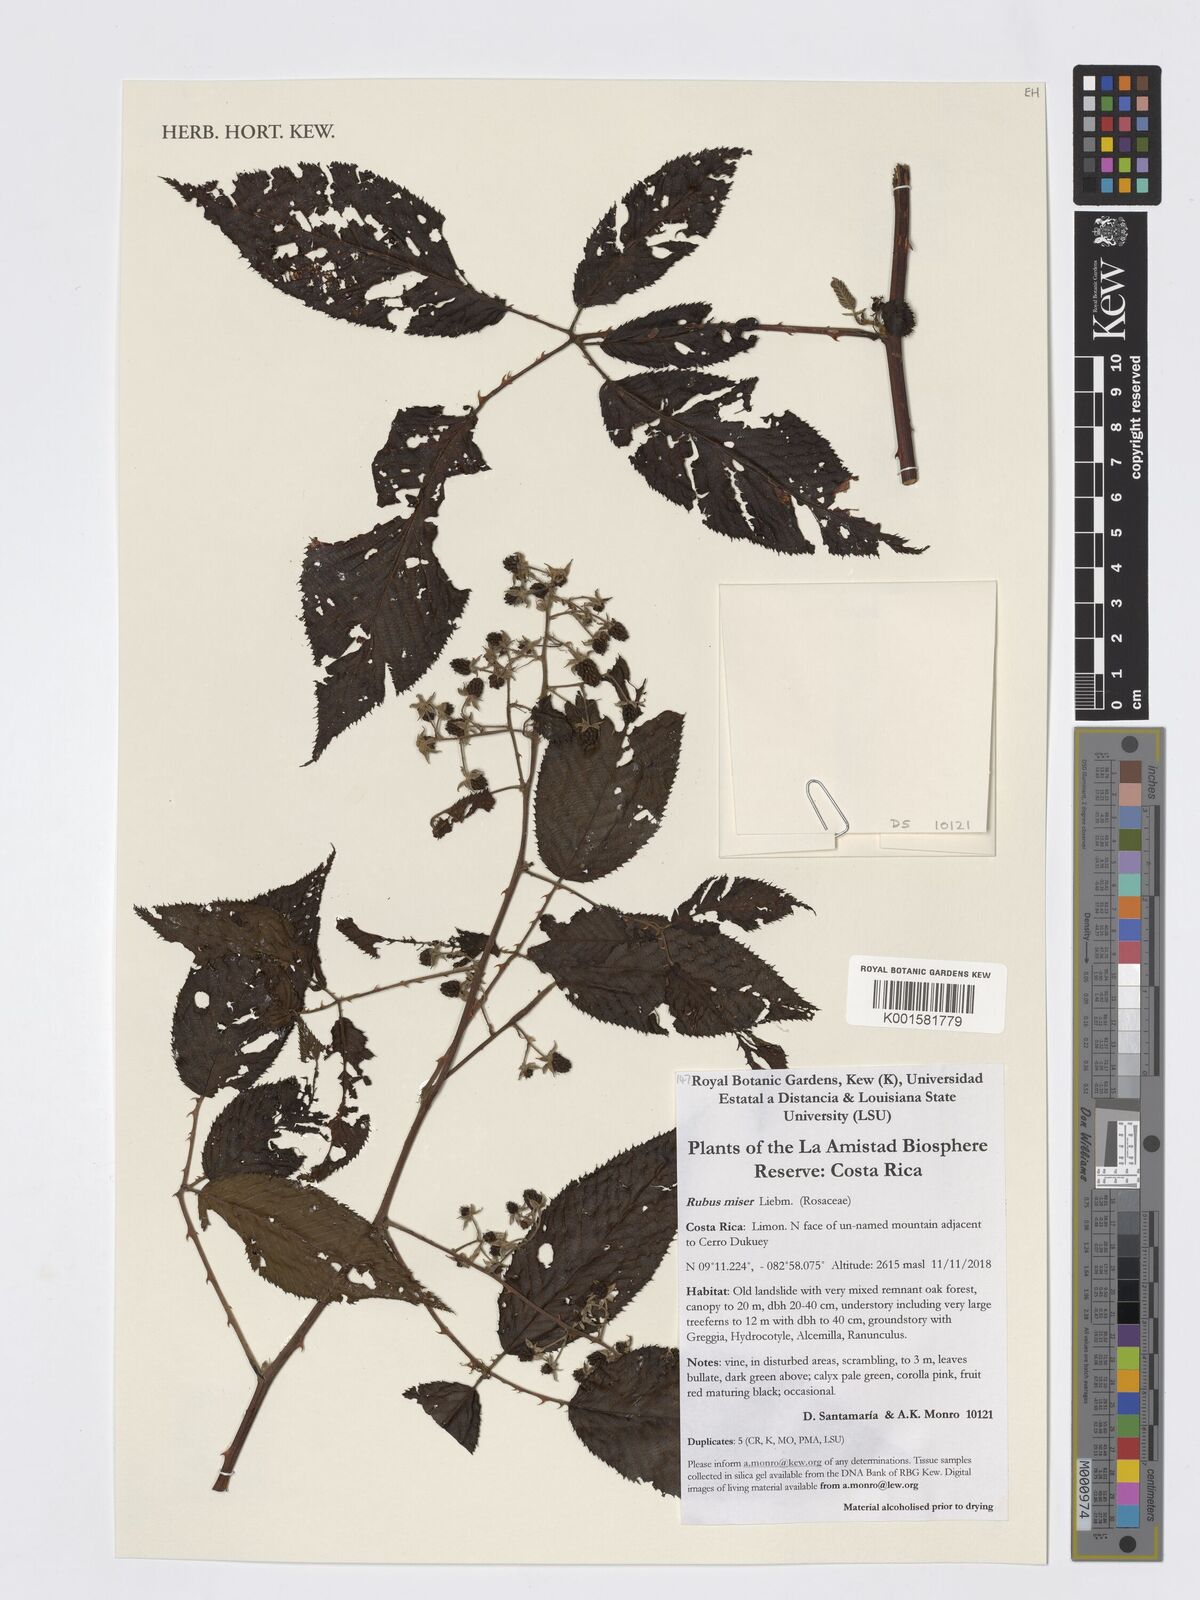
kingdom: Plantae
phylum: Tracheophyta
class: Magnoliopsida
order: Rosales
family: Rosaceae
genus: Rubus
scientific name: Rubus miser
